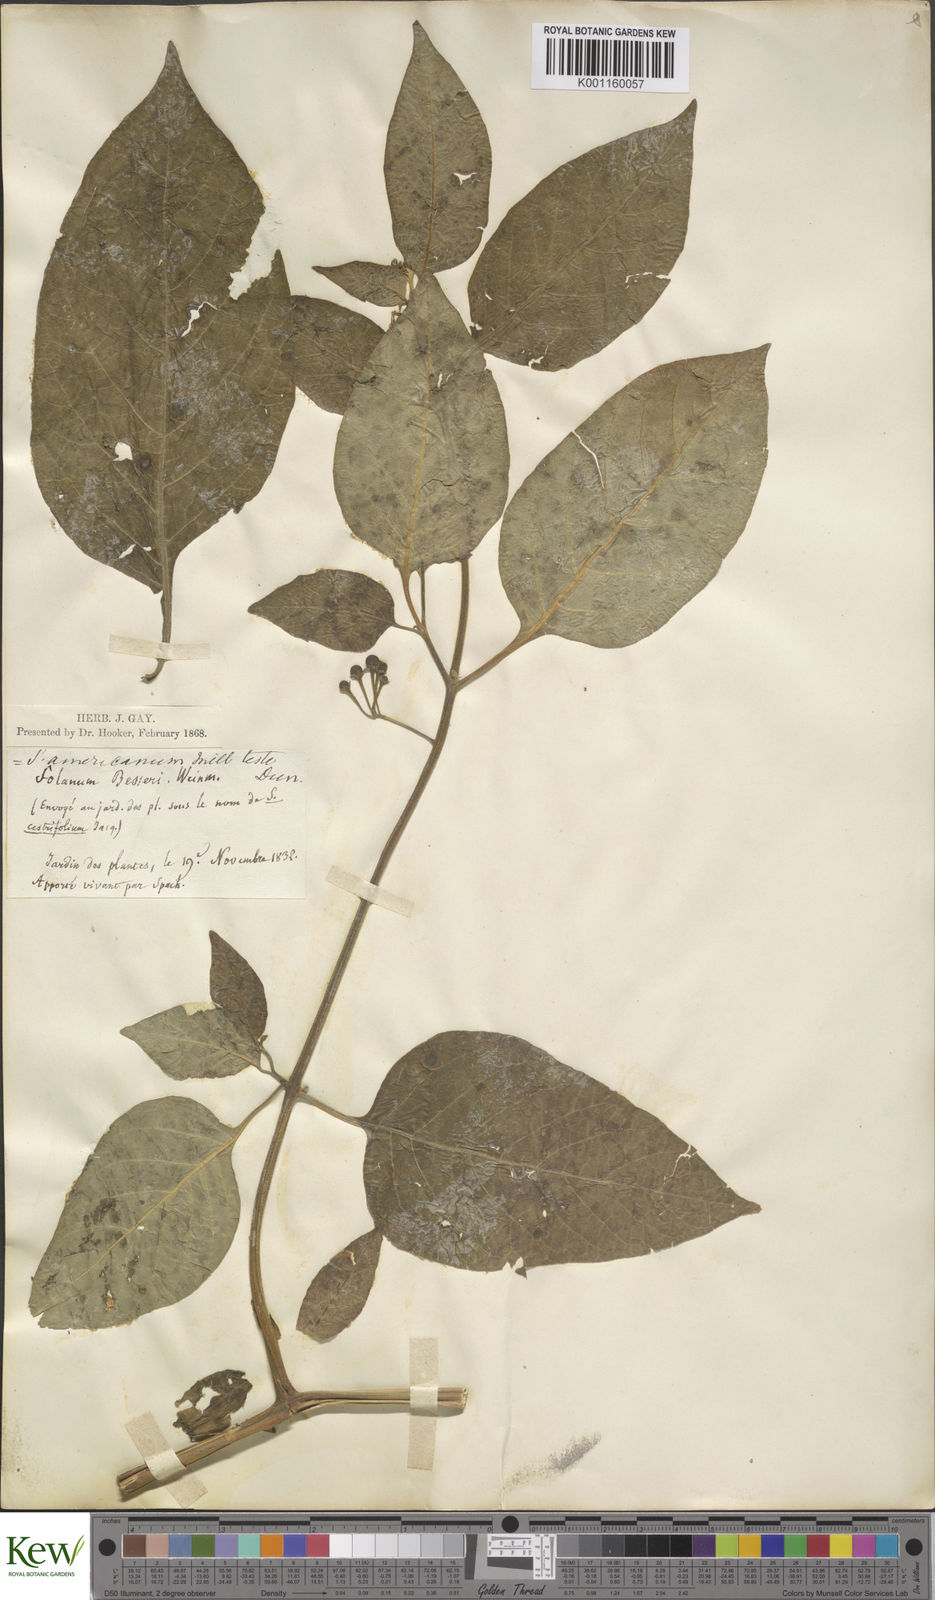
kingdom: Plantae
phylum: Tracheophyta
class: Magnoliopsida
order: Solanales
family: Solanaceae
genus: Solanum
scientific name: Solanum chenopodioides
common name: Tall nightshade
